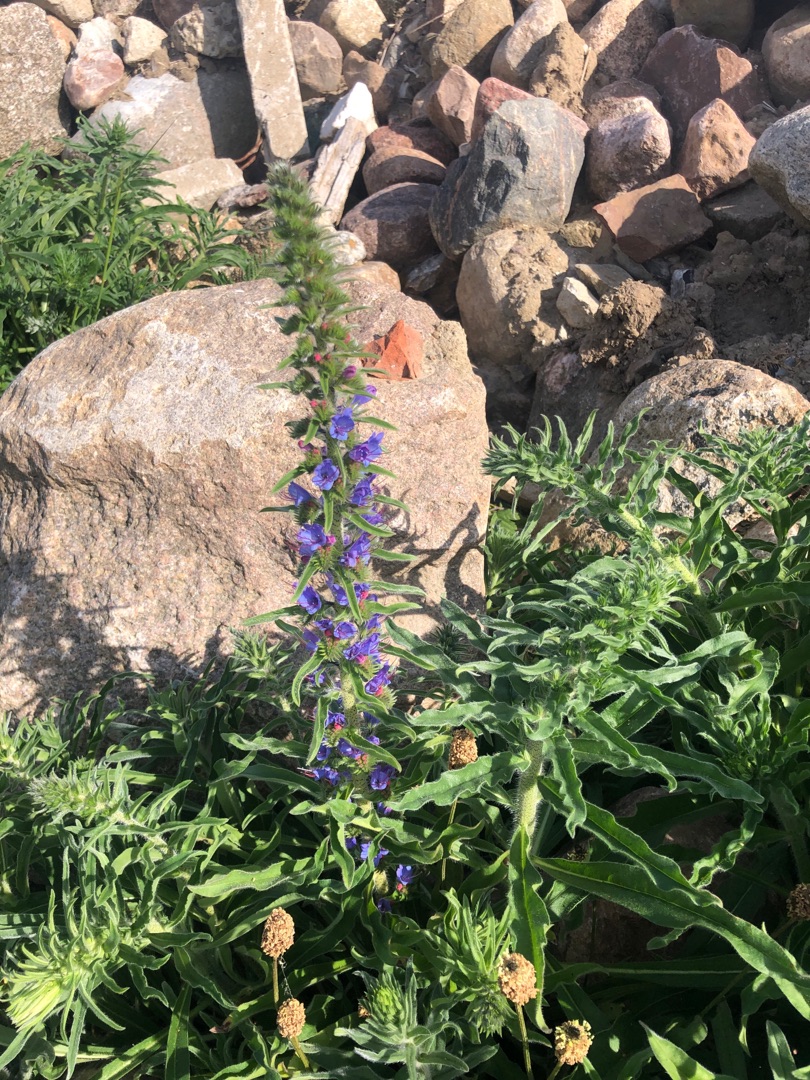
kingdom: Plantae
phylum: Tracheophyta
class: Magnoliopsida
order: Boraginales
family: Boraginaceae
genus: Echium
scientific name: Echium vulgare
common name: Slangehoved
